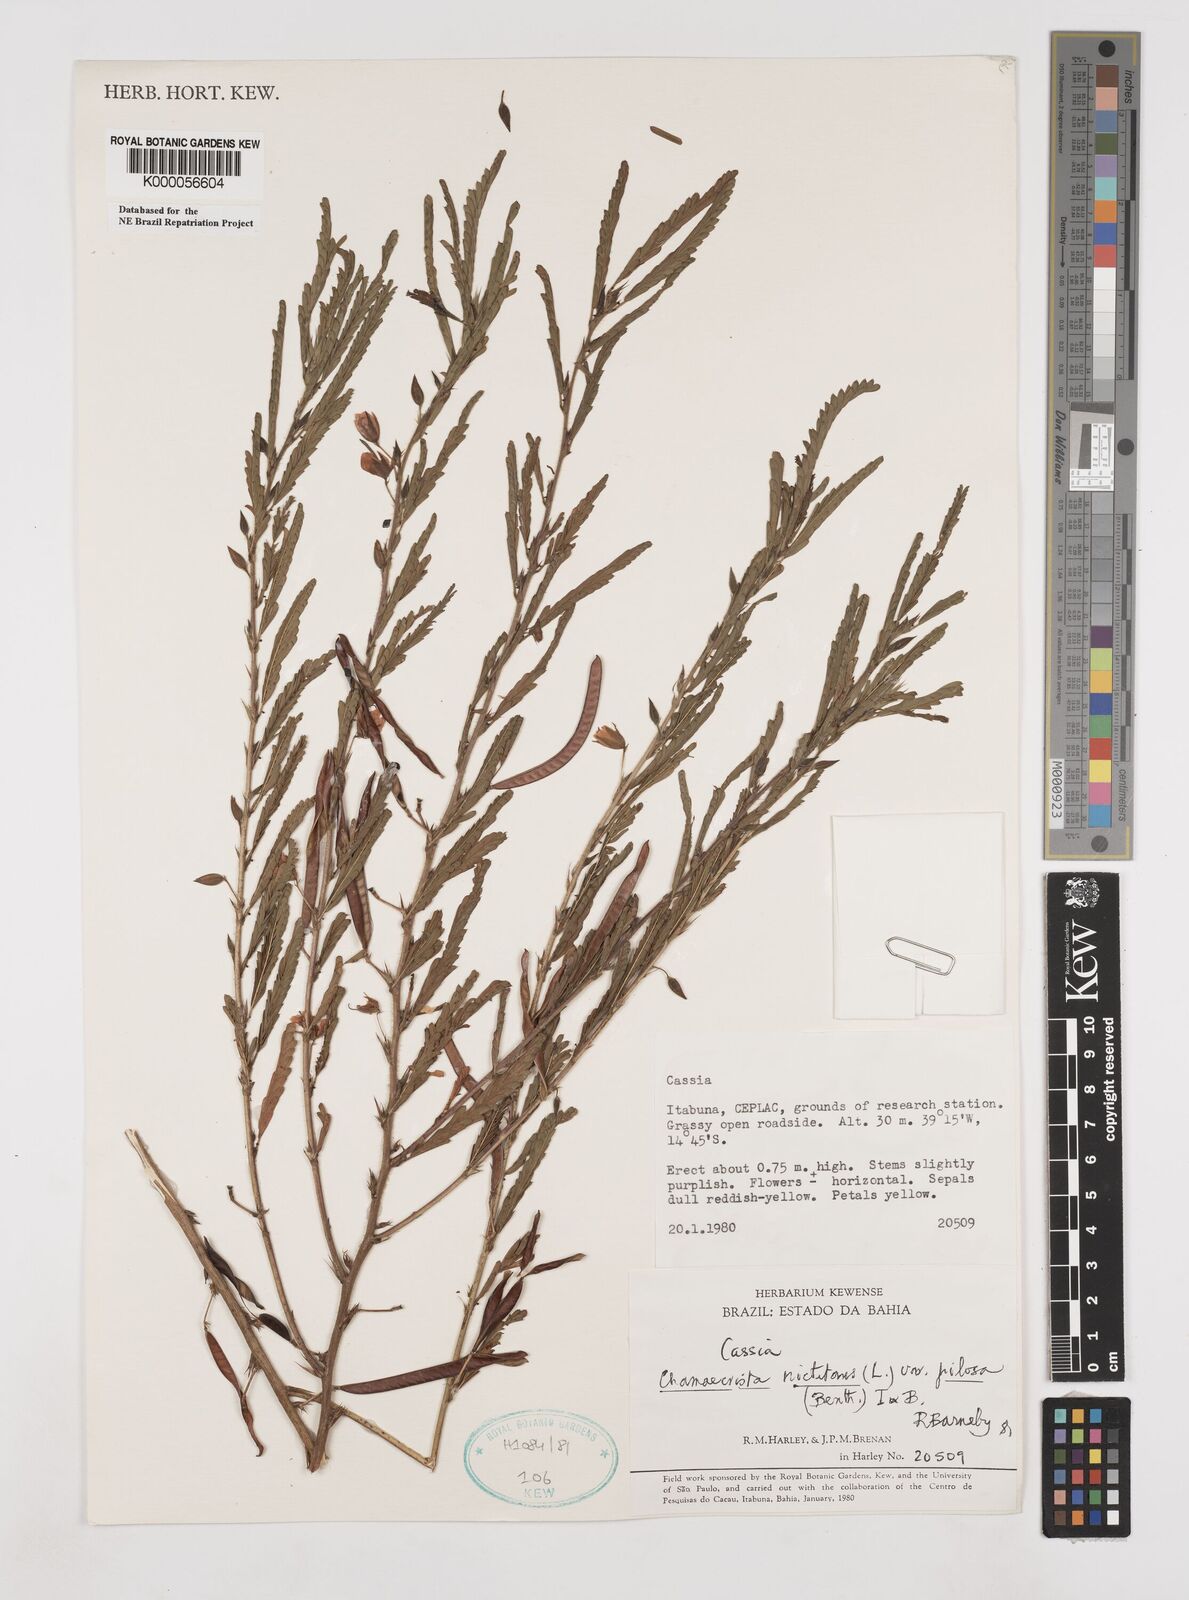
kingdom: Plantae
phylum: Tracheophyta
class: Magnoliopsida
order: Fabales
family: Fabaceae
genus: Chamaecrista
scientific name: Chamaecrista nictitans
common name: Sensitive cassia
